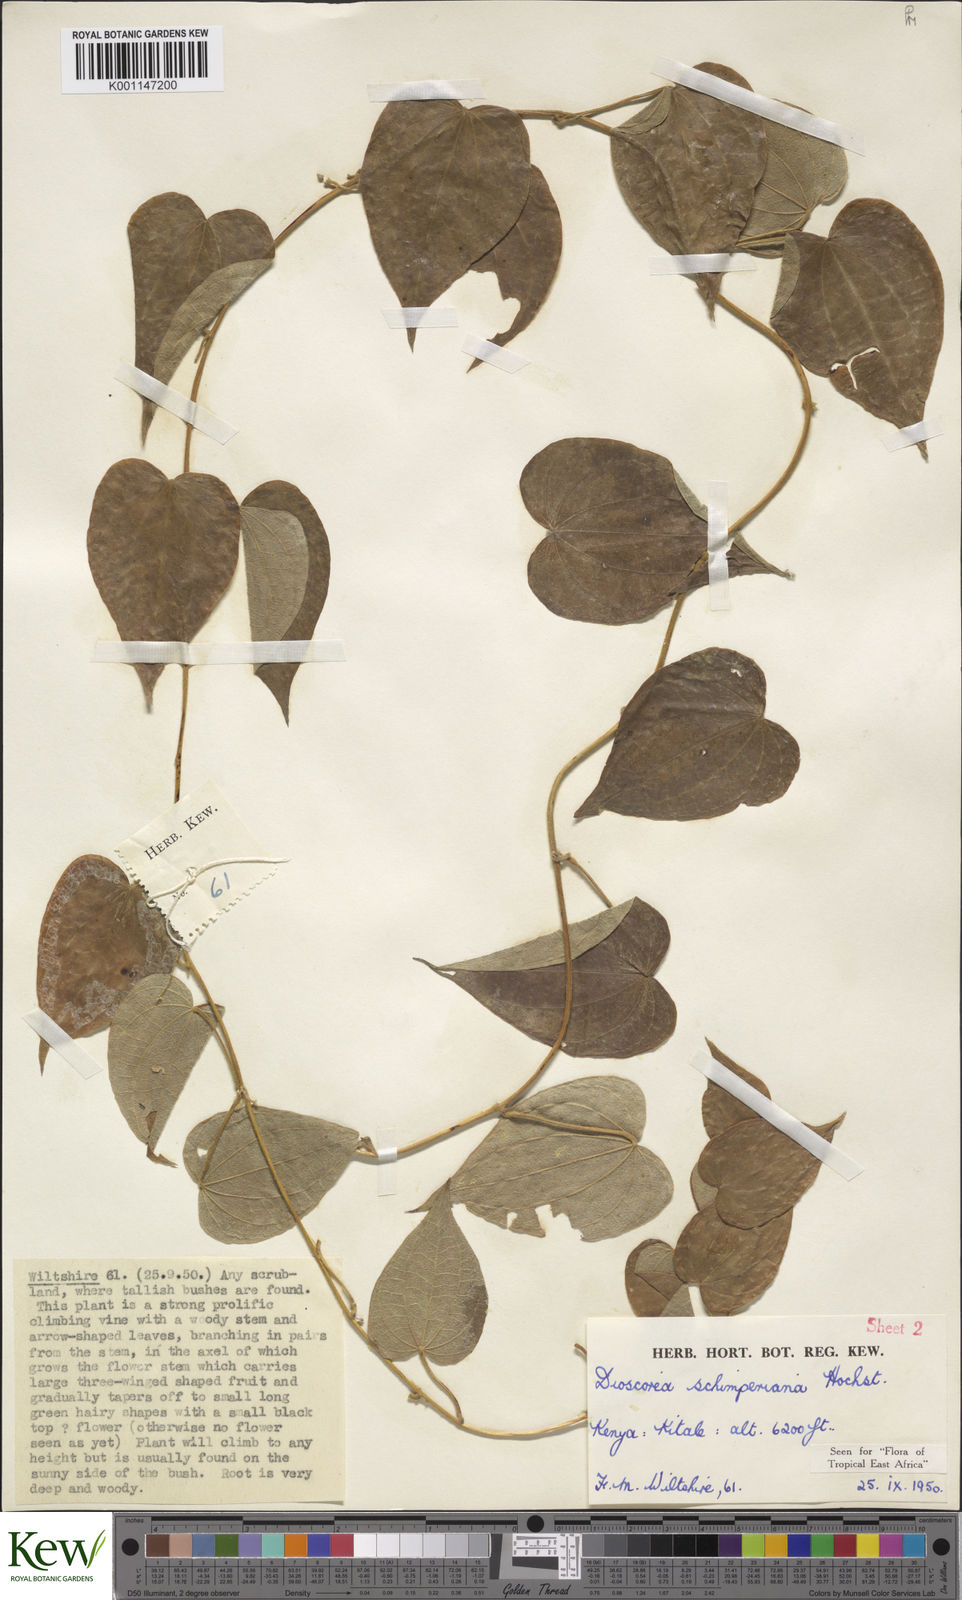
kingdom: Plantae
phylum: Tracheophyta
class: Liliopsida
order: Dioscoreales
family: Dioscoreaceae
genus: Dioscorea
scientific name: Dioscorea schimperiana
